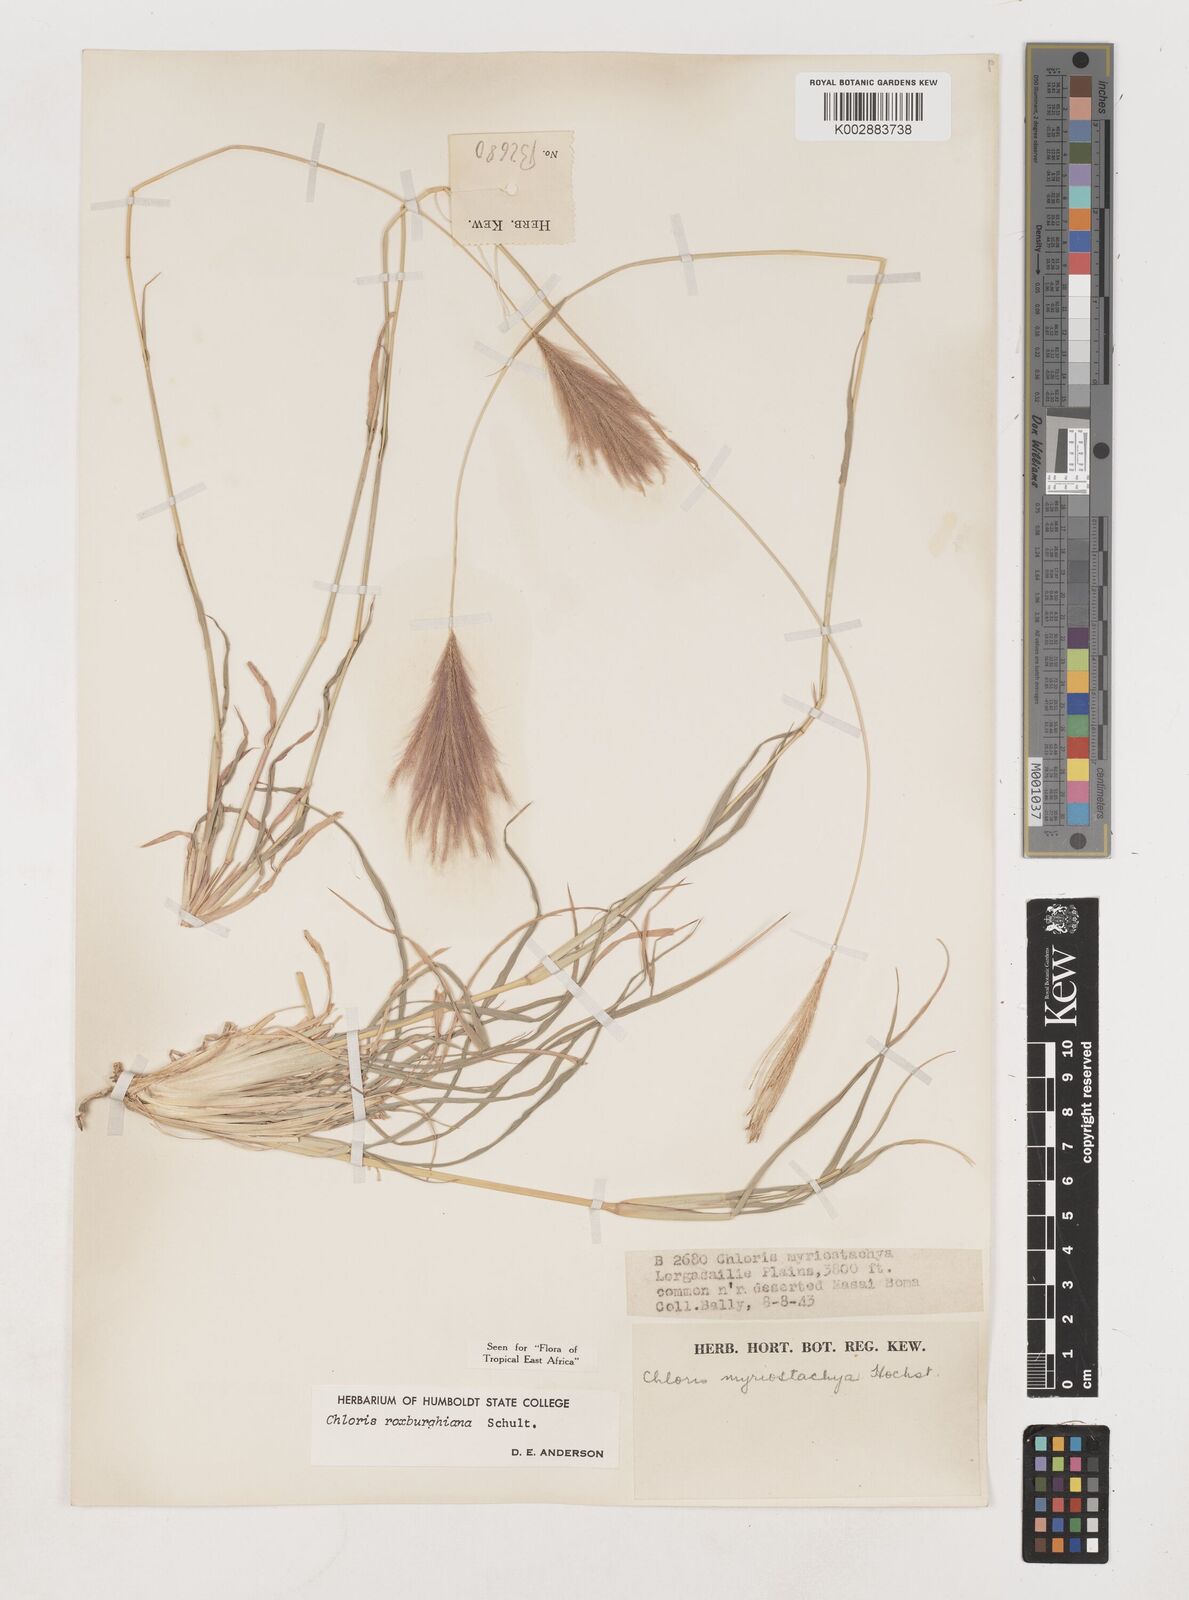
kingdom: Plantae
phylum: Tracheophyta
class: Liliopsida
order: Poales
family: Poaceae
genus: Tetrapogon
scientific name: Tetrapogon roxburghiana
